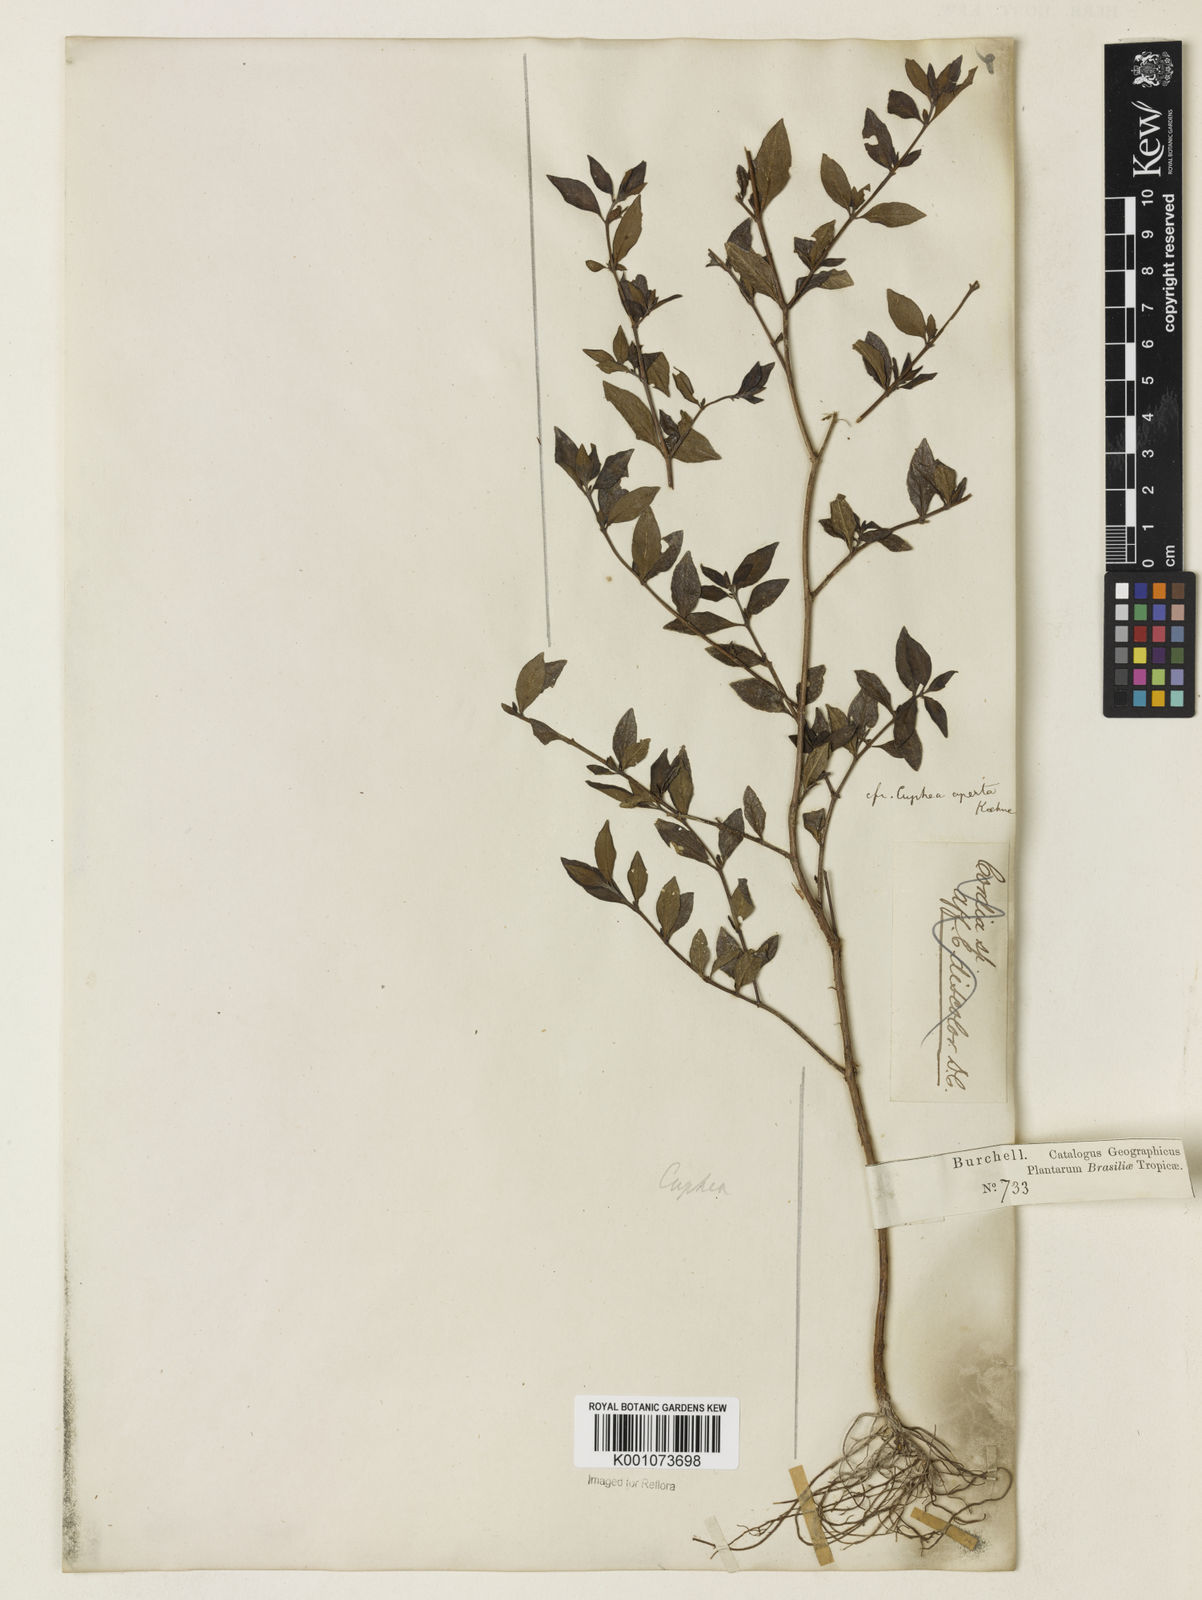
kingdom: Plantae
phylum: Tracheophyta
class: Magnoliopsida
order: Myrtales
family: Lythraceae
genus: Cuphea
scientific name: Cuphea aperta
